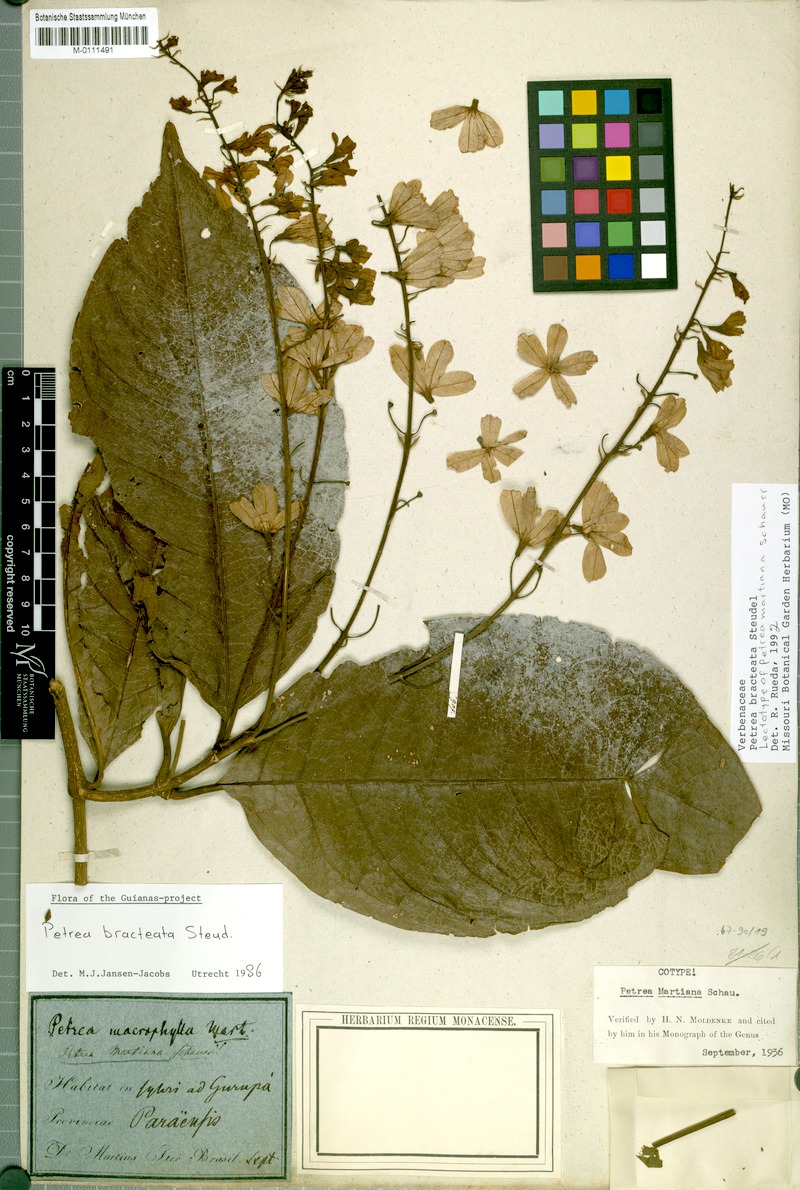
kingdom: Plantae
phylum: Tracheophyta
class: Magnoliopsida
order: Lamiales
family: Verbenaceae
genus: Petrea
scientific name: Petrea bracteata
